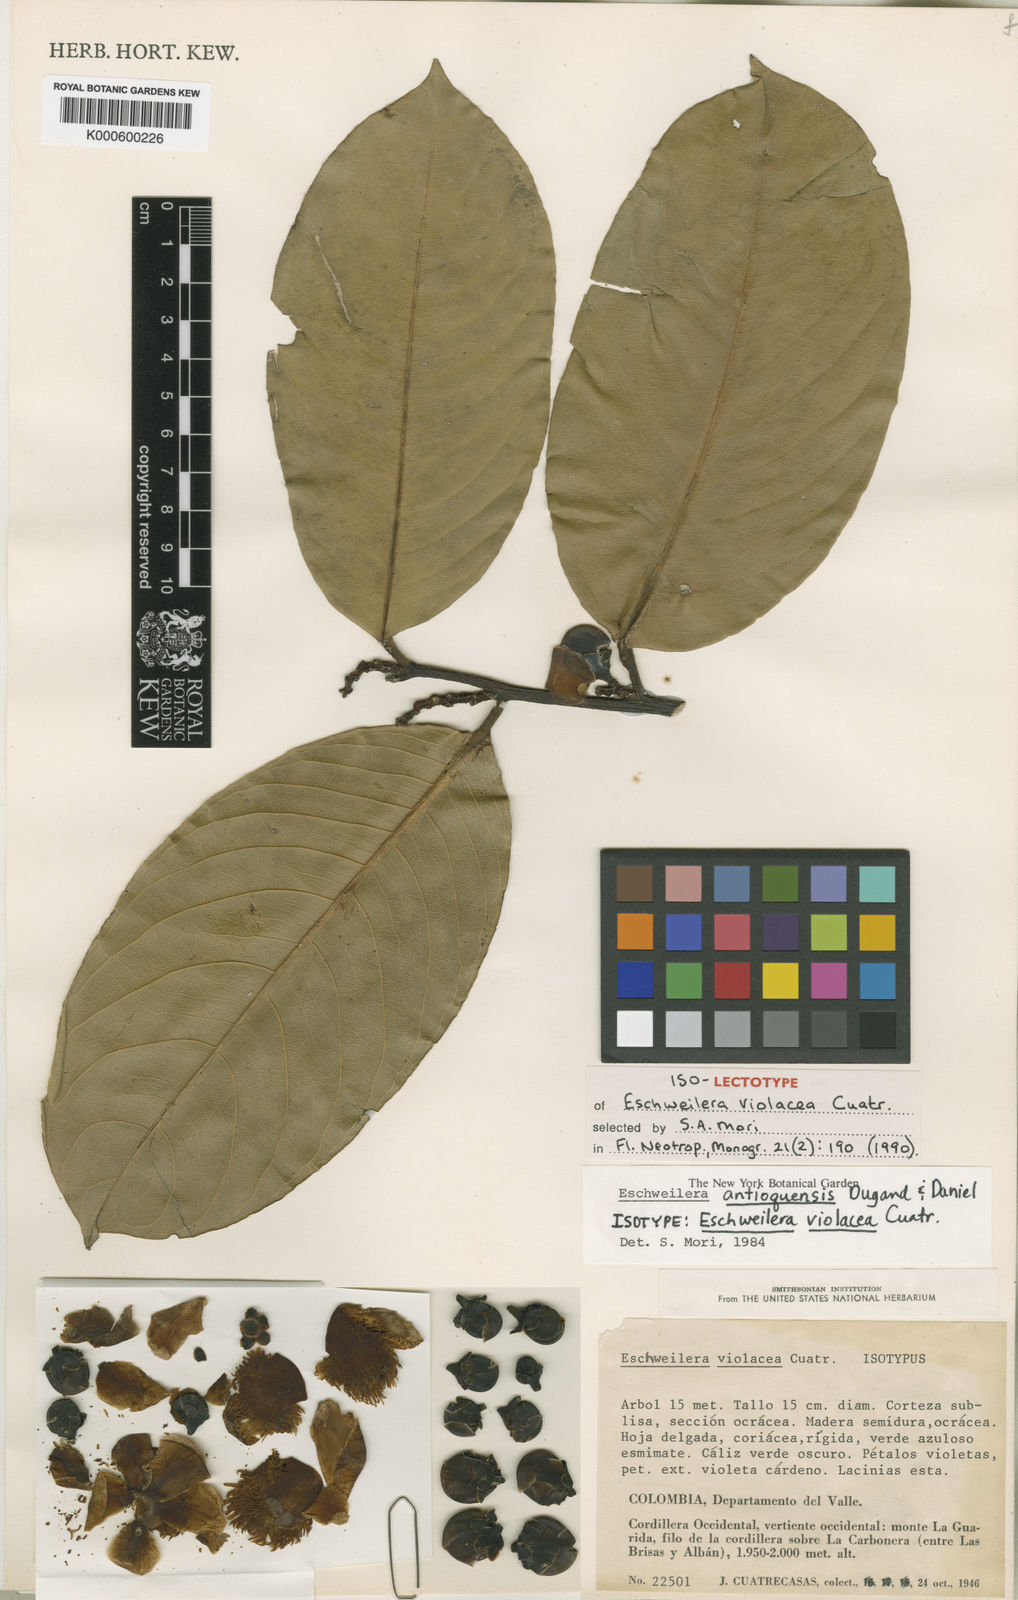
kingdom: Plantae
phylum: Tracheophyta
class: Magnoliopsida
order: Ericales
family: Lecythidaceae
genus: Eschweilera
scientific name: Eschweilera antioquensis
